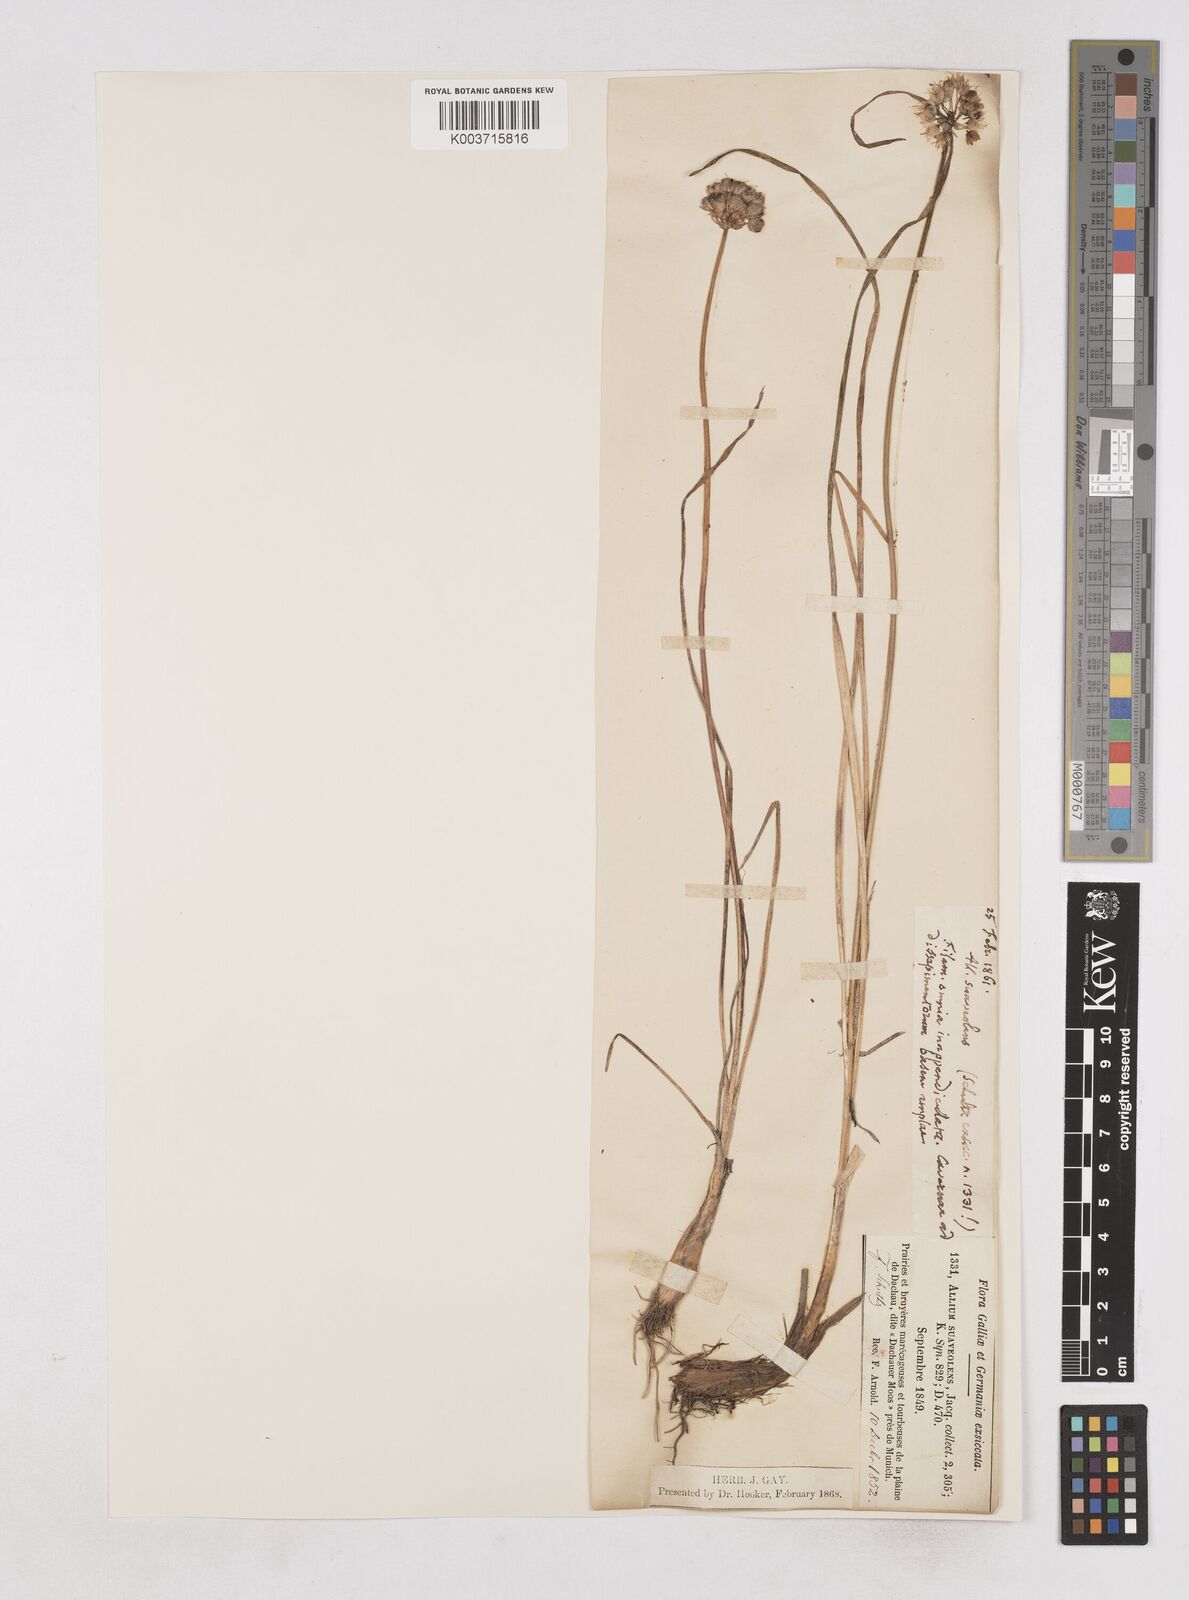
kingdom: Plantae
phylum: Tracheophyta
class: Liliopsida
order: Asparagales
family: Amaryllidaceae
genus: Allium
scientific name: Allium suaveolens
